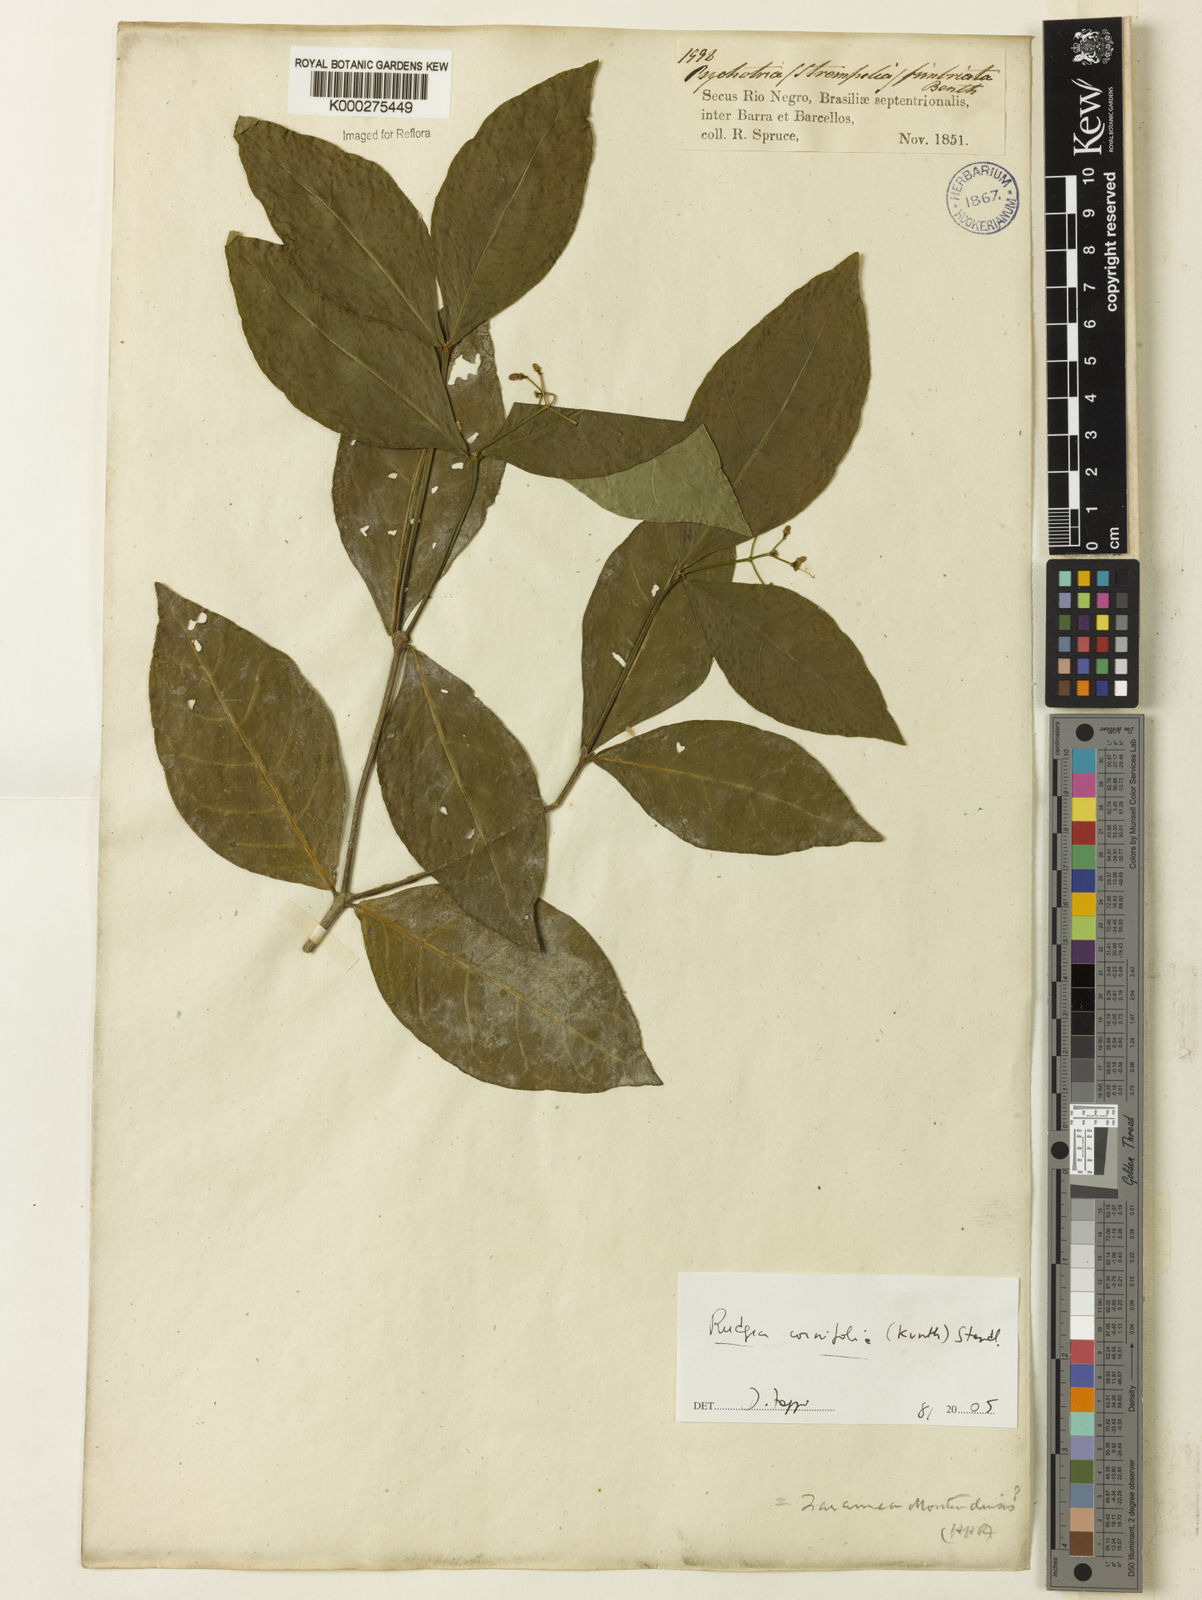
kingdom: Plantae
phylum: Tracheophyta
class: Magnoliopsida
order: Gentianales
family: Rubiaceae
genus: Rudgea
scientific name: Rudgea cornifolia
